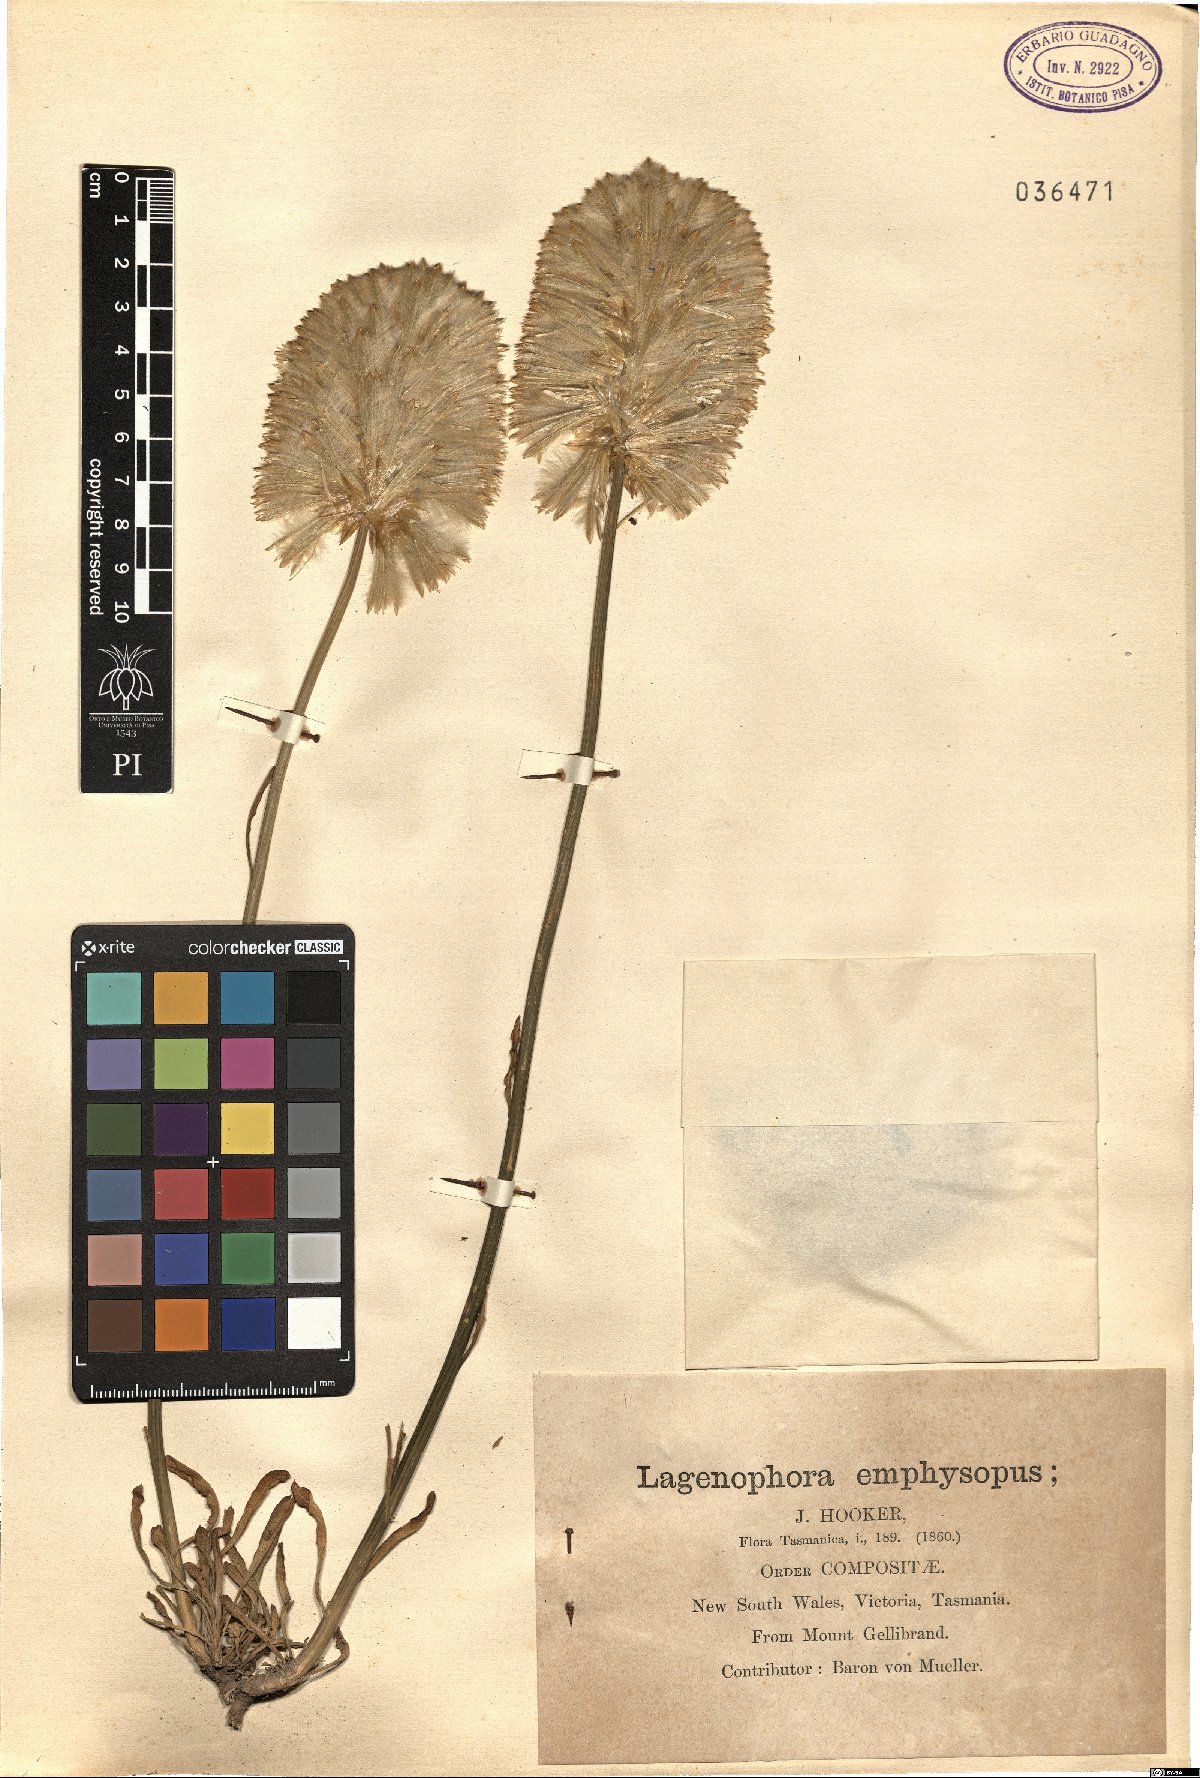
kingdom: Plantae
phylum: Tracheophyta
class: Magnoliopsida
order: Asterales
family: Asteraceae
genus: Solenogyne
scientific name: Solenogyne bellioides
